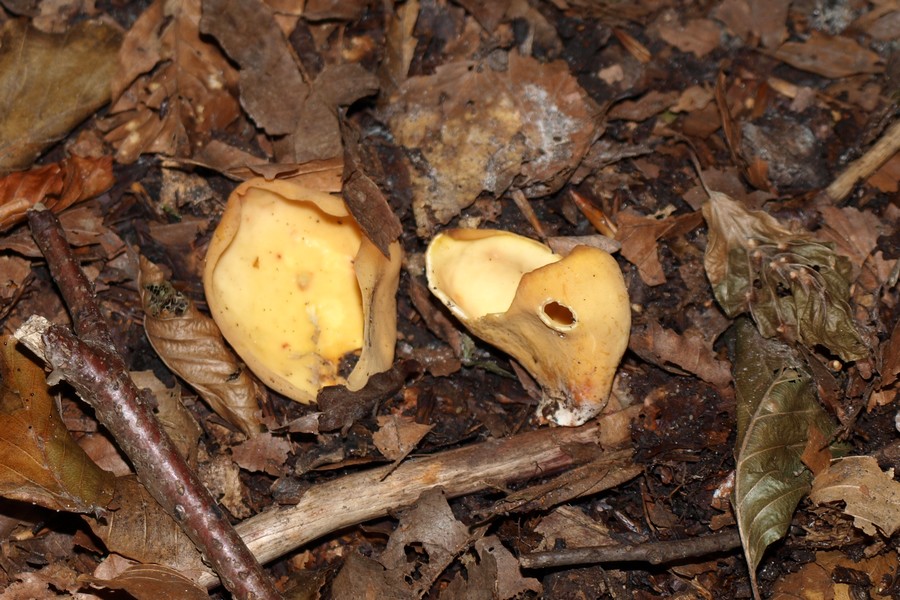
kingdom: Fungi
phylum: Ascomycota
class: Pezizomycetes
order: Pezizales
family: Otideaceae
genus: Otidea
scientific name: Otidea onotica
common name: æsel-ørebæger
